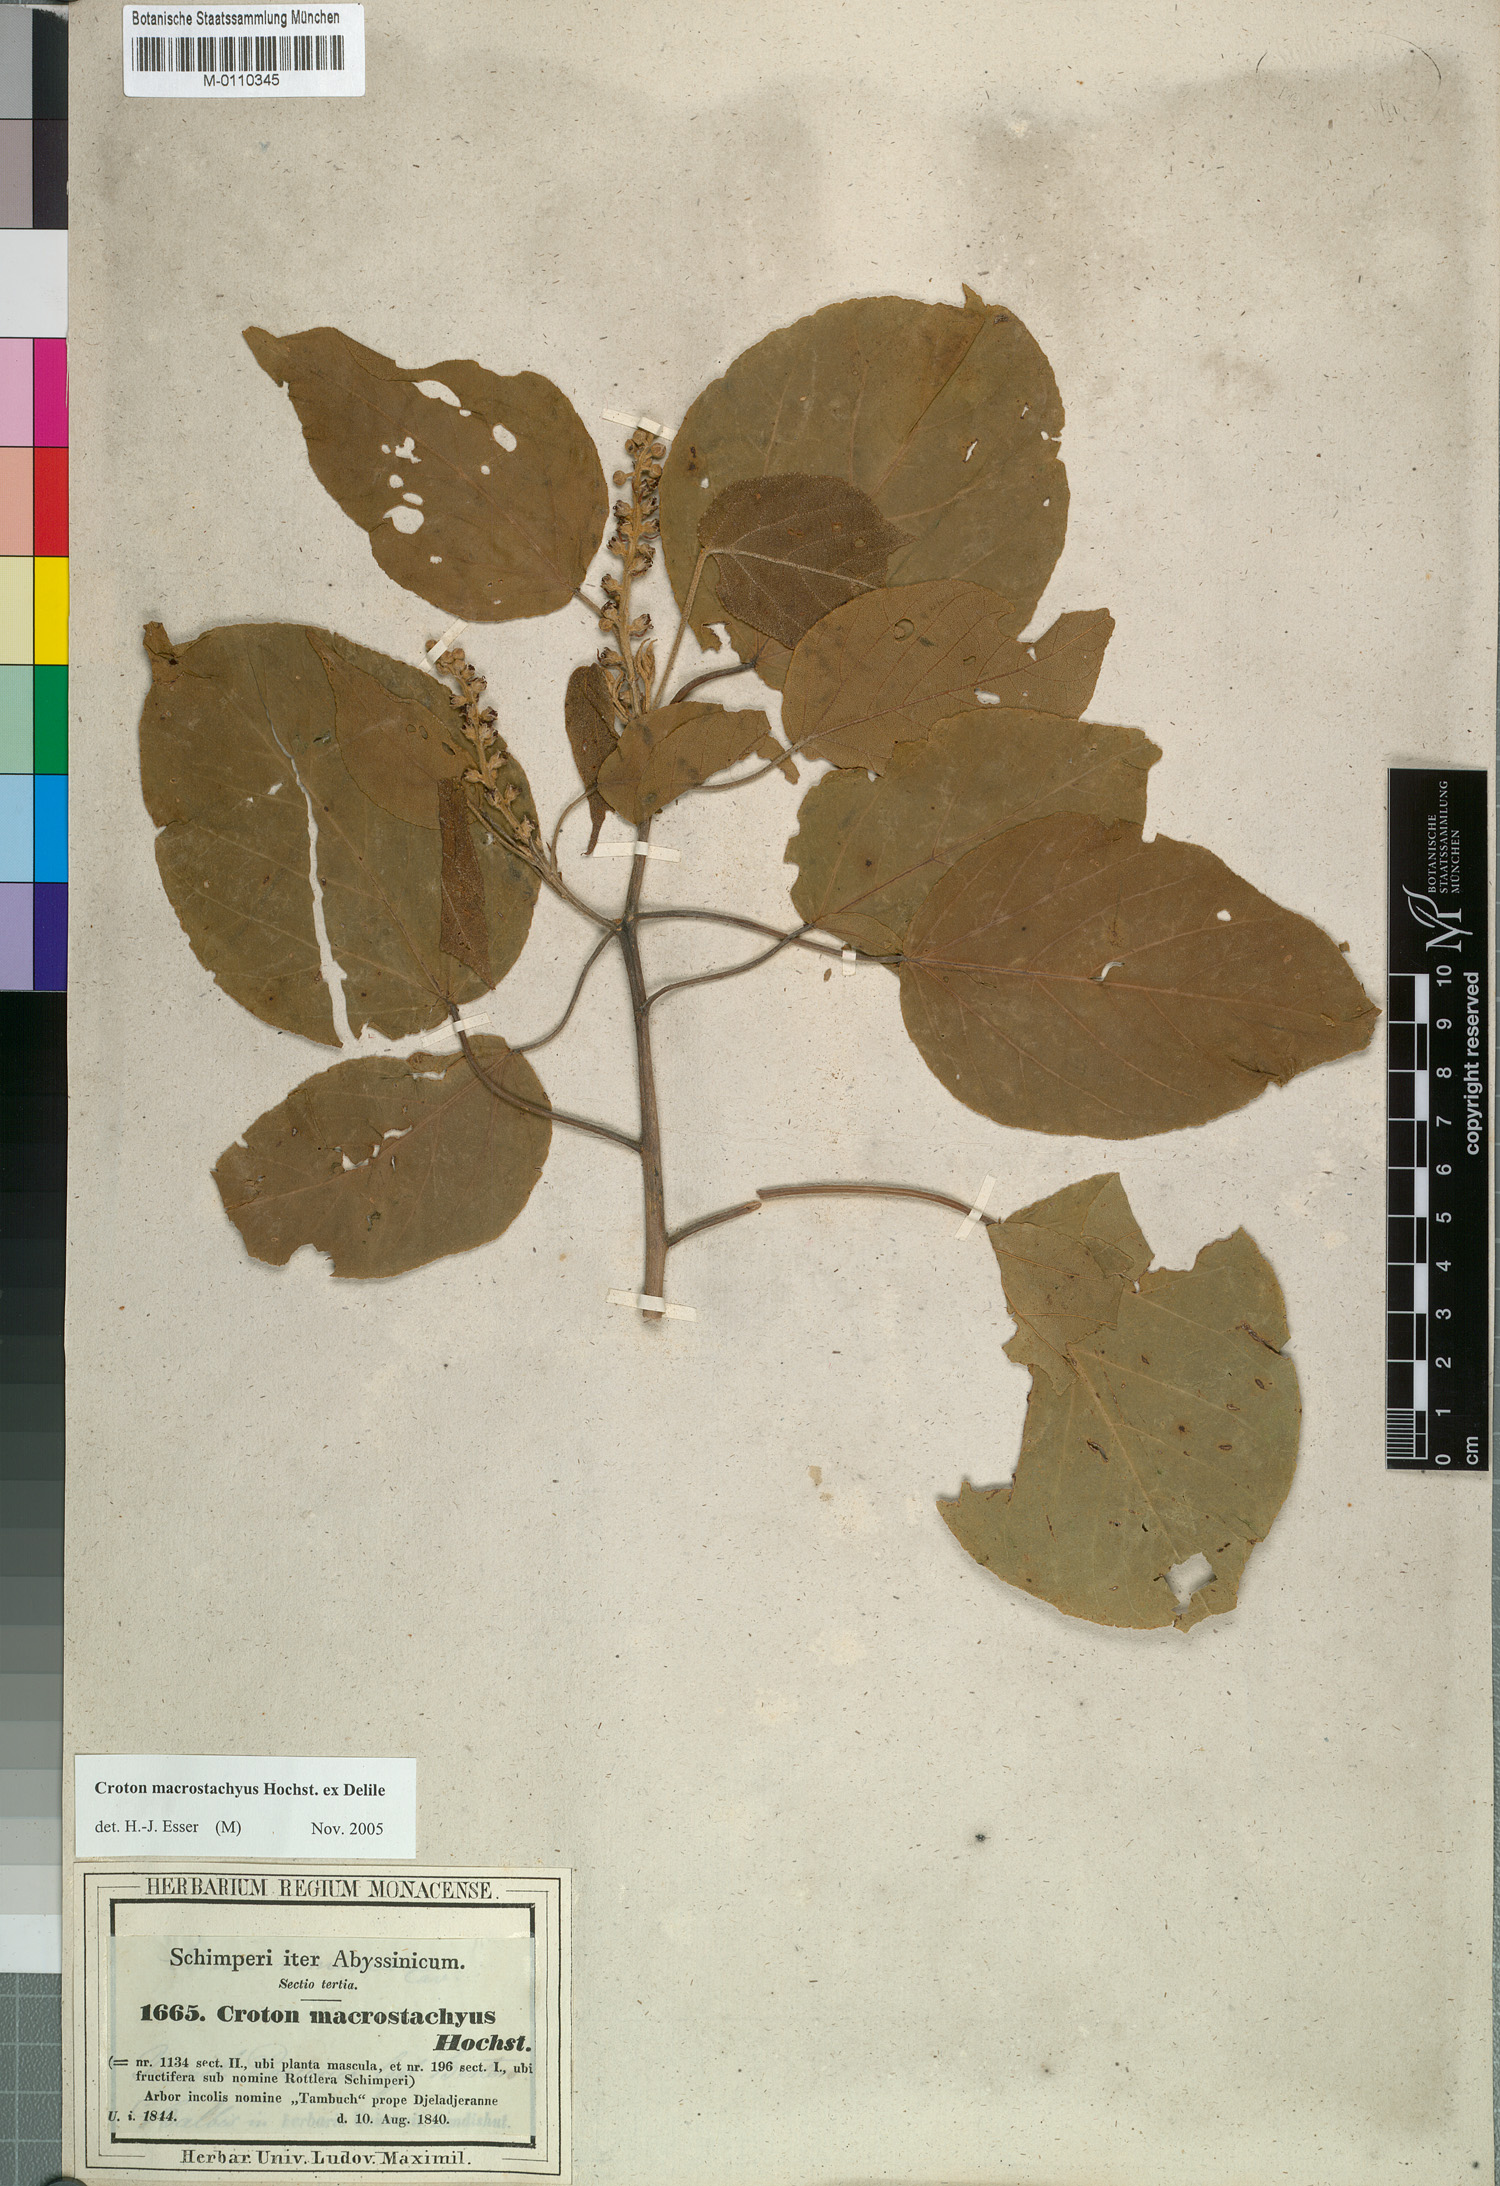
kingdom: Plantae
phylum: Tracheophyta
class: Magnoliopsida
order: Malpighiales
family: Euphorbiaceae
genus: Croton
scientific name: Croton macrostachyus
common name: Mutundu
